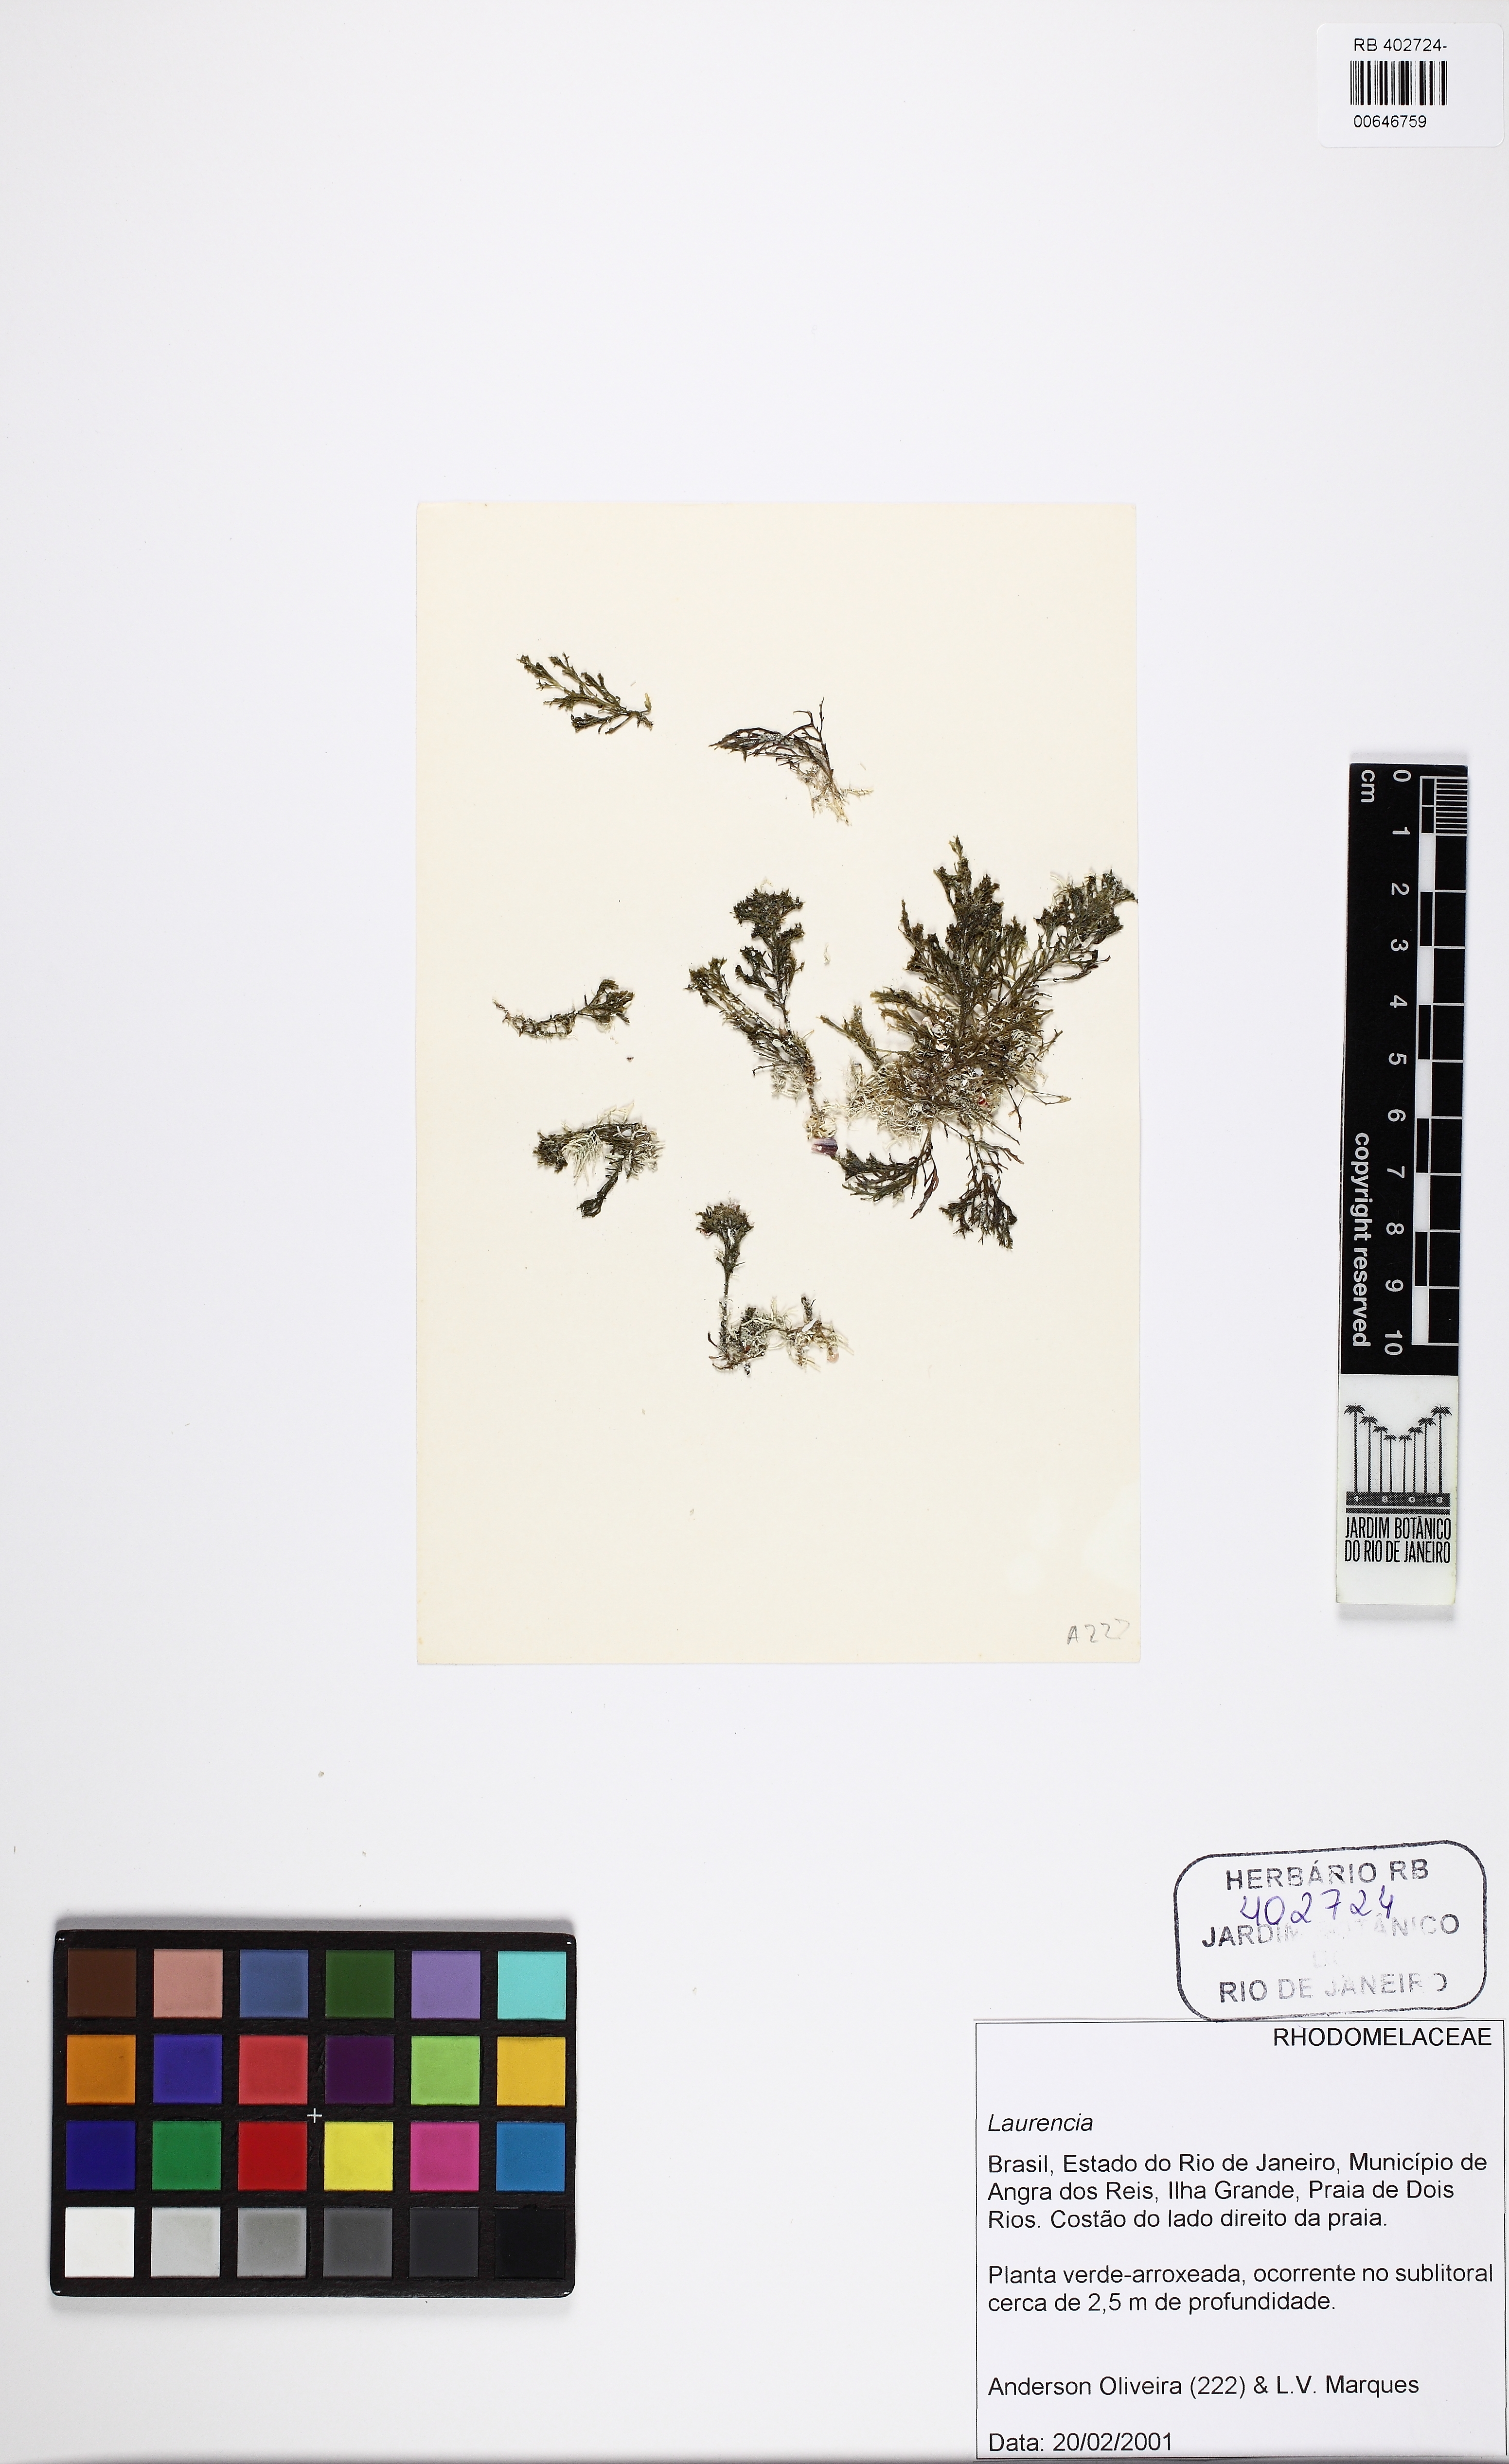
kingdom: Plantae
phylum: Rhodophyta
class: Florideophyceae
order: Ceramiales
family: Rhodomelaceae
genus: Laurencia
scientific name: Laurencia
